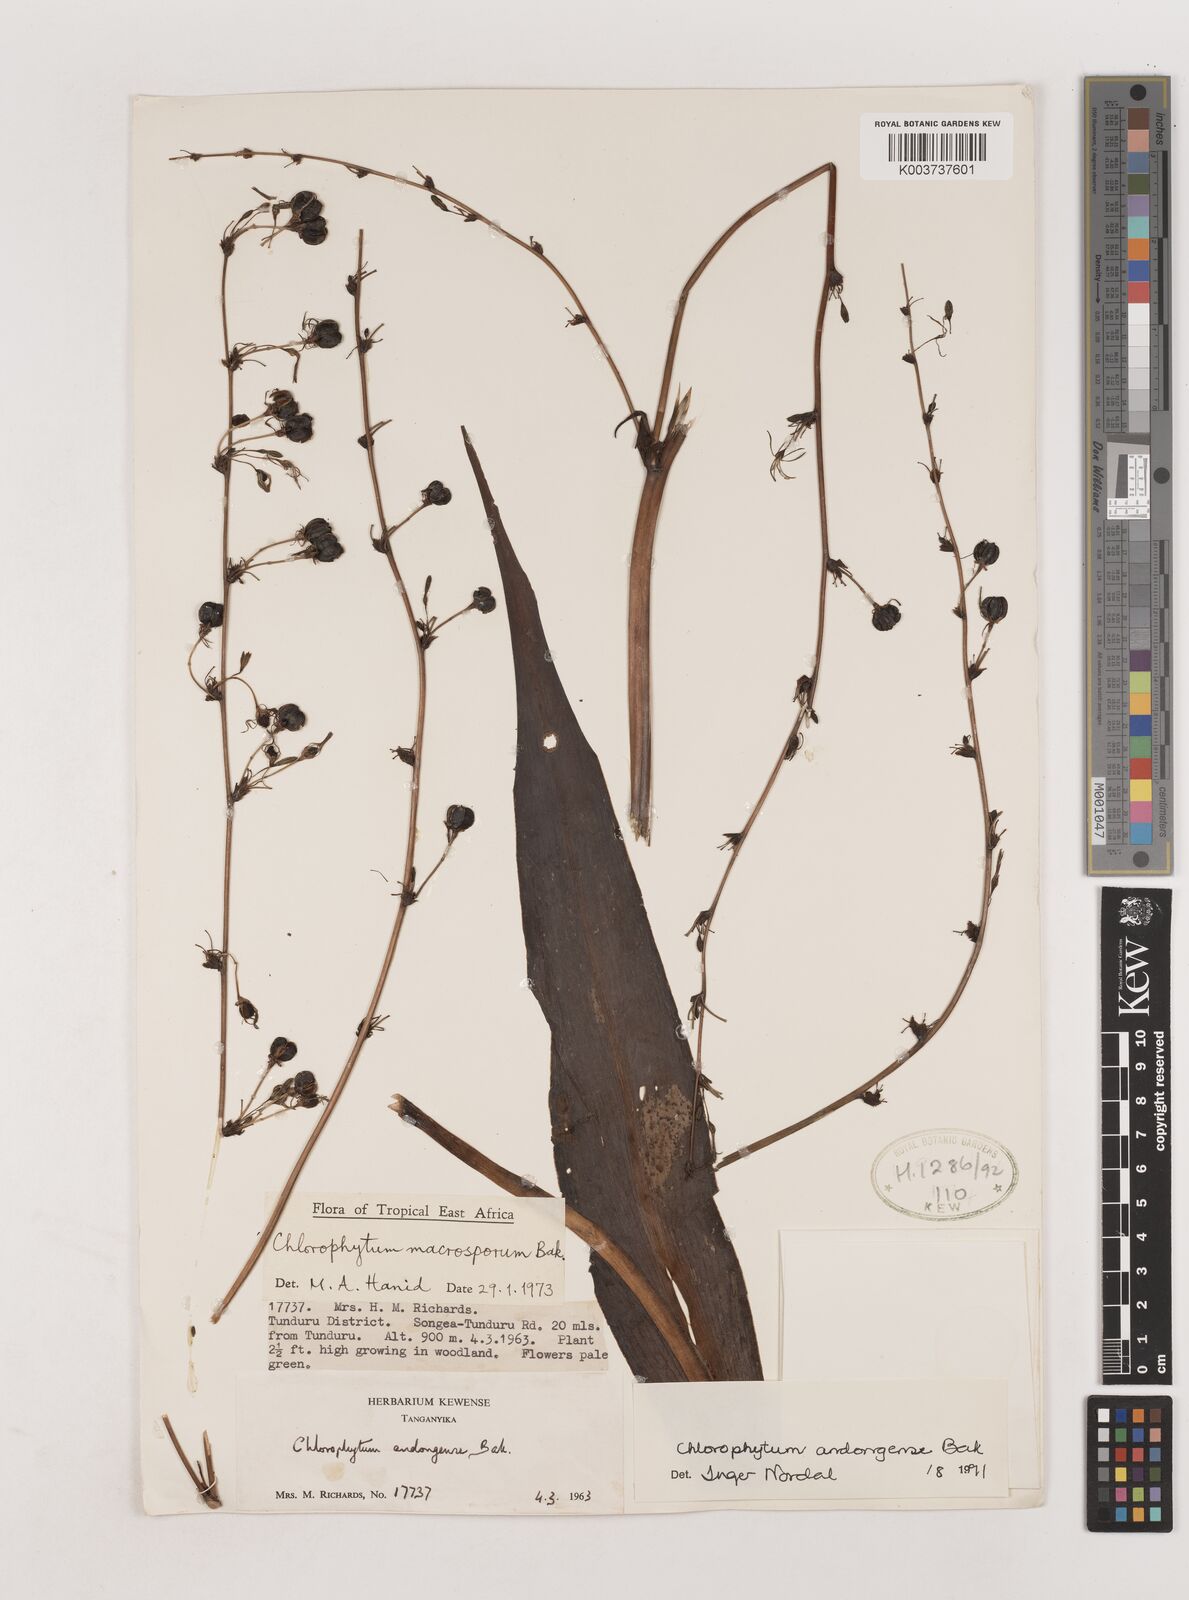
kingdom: Plantae
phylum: Tracheophyta
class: Liliopsida
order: Asparagales
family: Asparagaceae
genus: Chlorophytum
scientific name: Chlorophytum andongense
